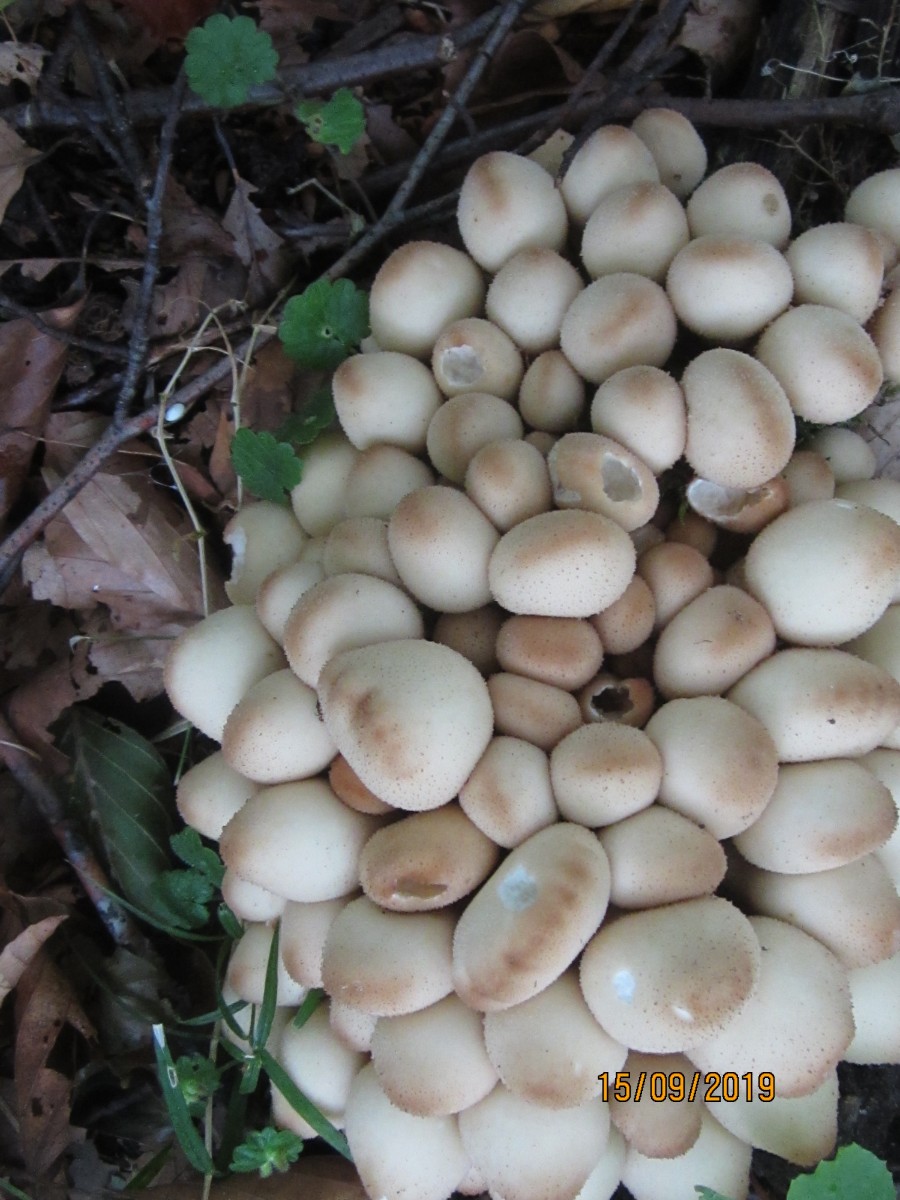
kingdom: Fungi
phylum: Basidiomycota
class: Agaricomycetes
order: Agaricales
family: Lycoperdaceae
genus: Apioperdon
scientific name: Apioperdon pyriforme
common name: pære-støvbold
